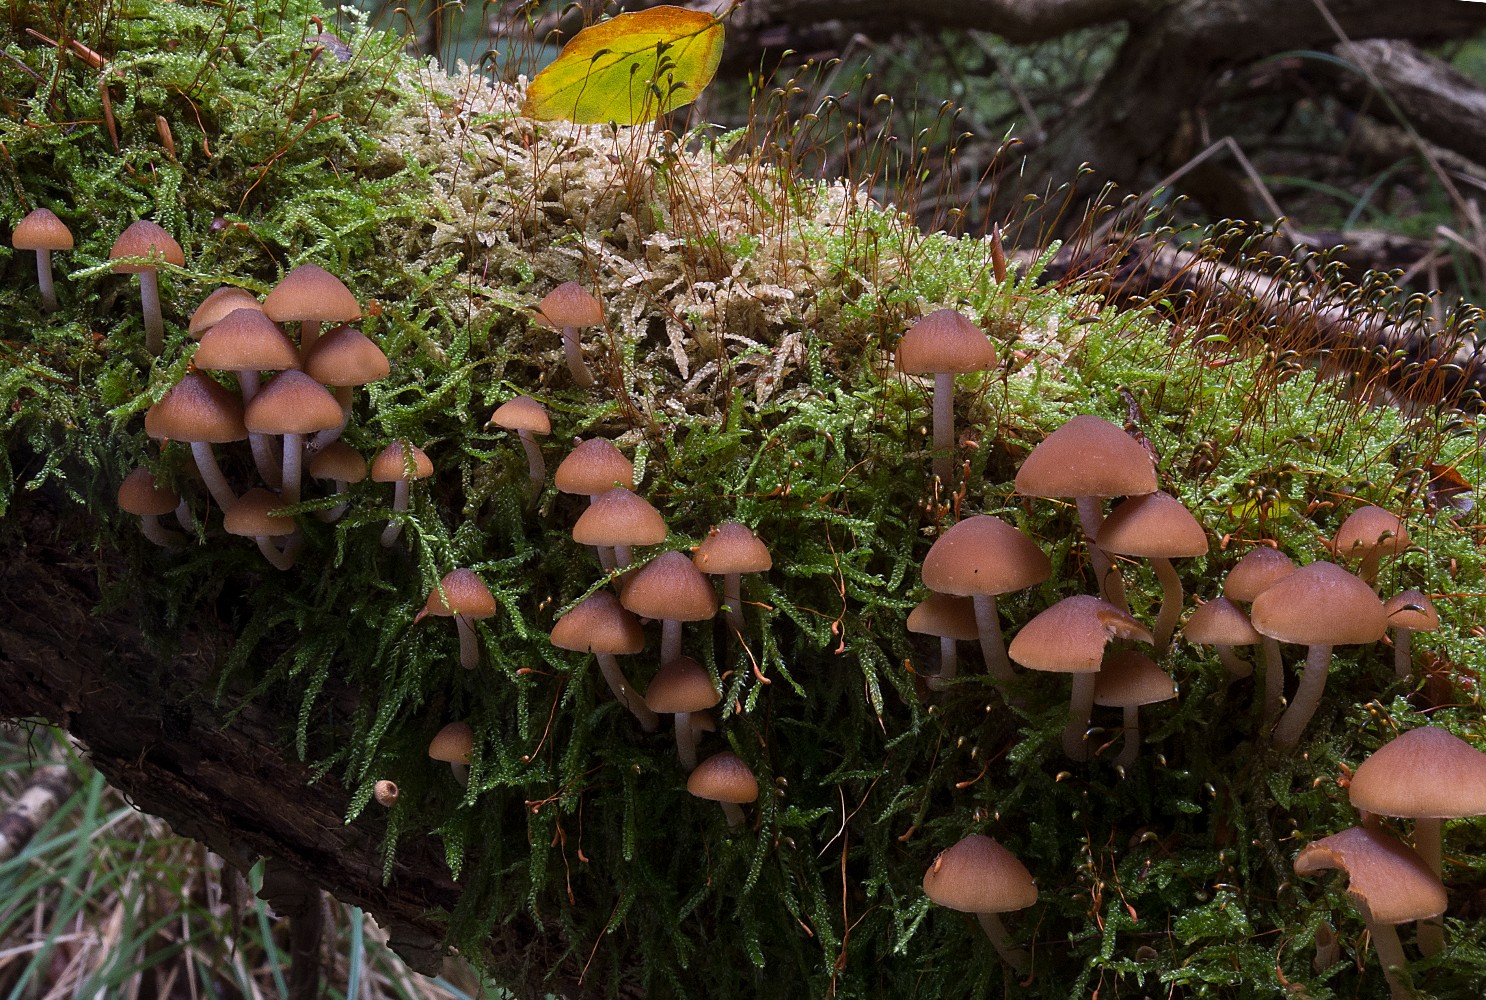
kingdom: Fungi
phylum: Basidiomycota
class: Agaricomycetes
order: Agaricales
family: Psathyrellaceae
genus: Psathyrella
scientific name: Psathyrella piluliformis
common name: lysstokket mørkhat
